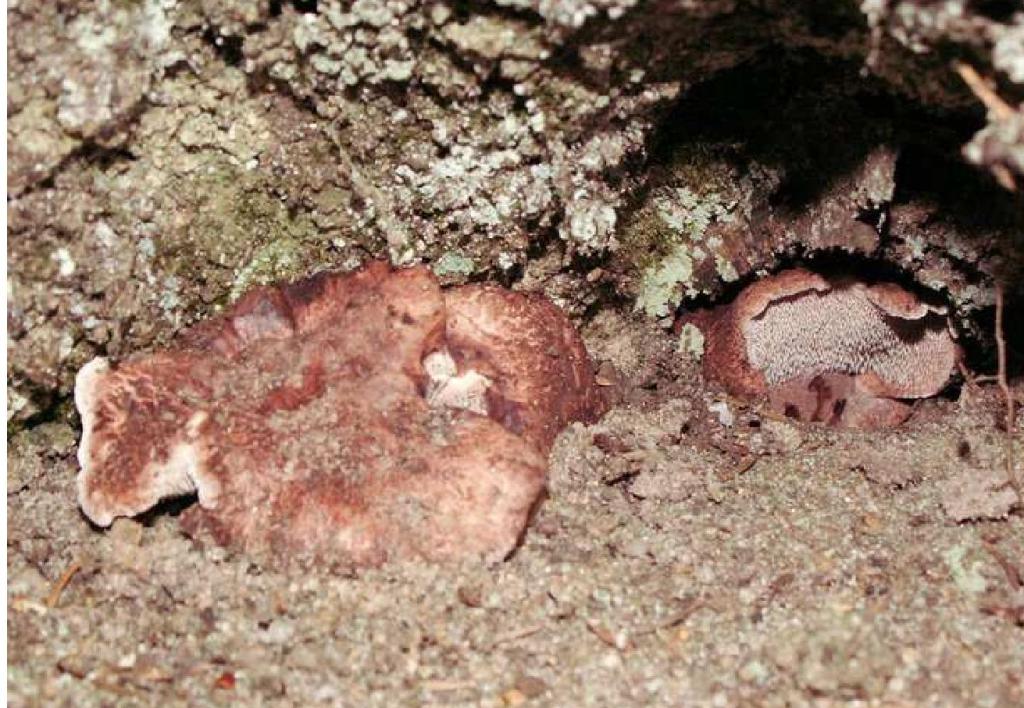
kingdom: Fungi
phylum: Basidiomycota
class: Agaricomycetes
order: Thelephorales
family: Bankeraceae
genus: Hydnellum
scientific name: Hydnellum nemorosum
